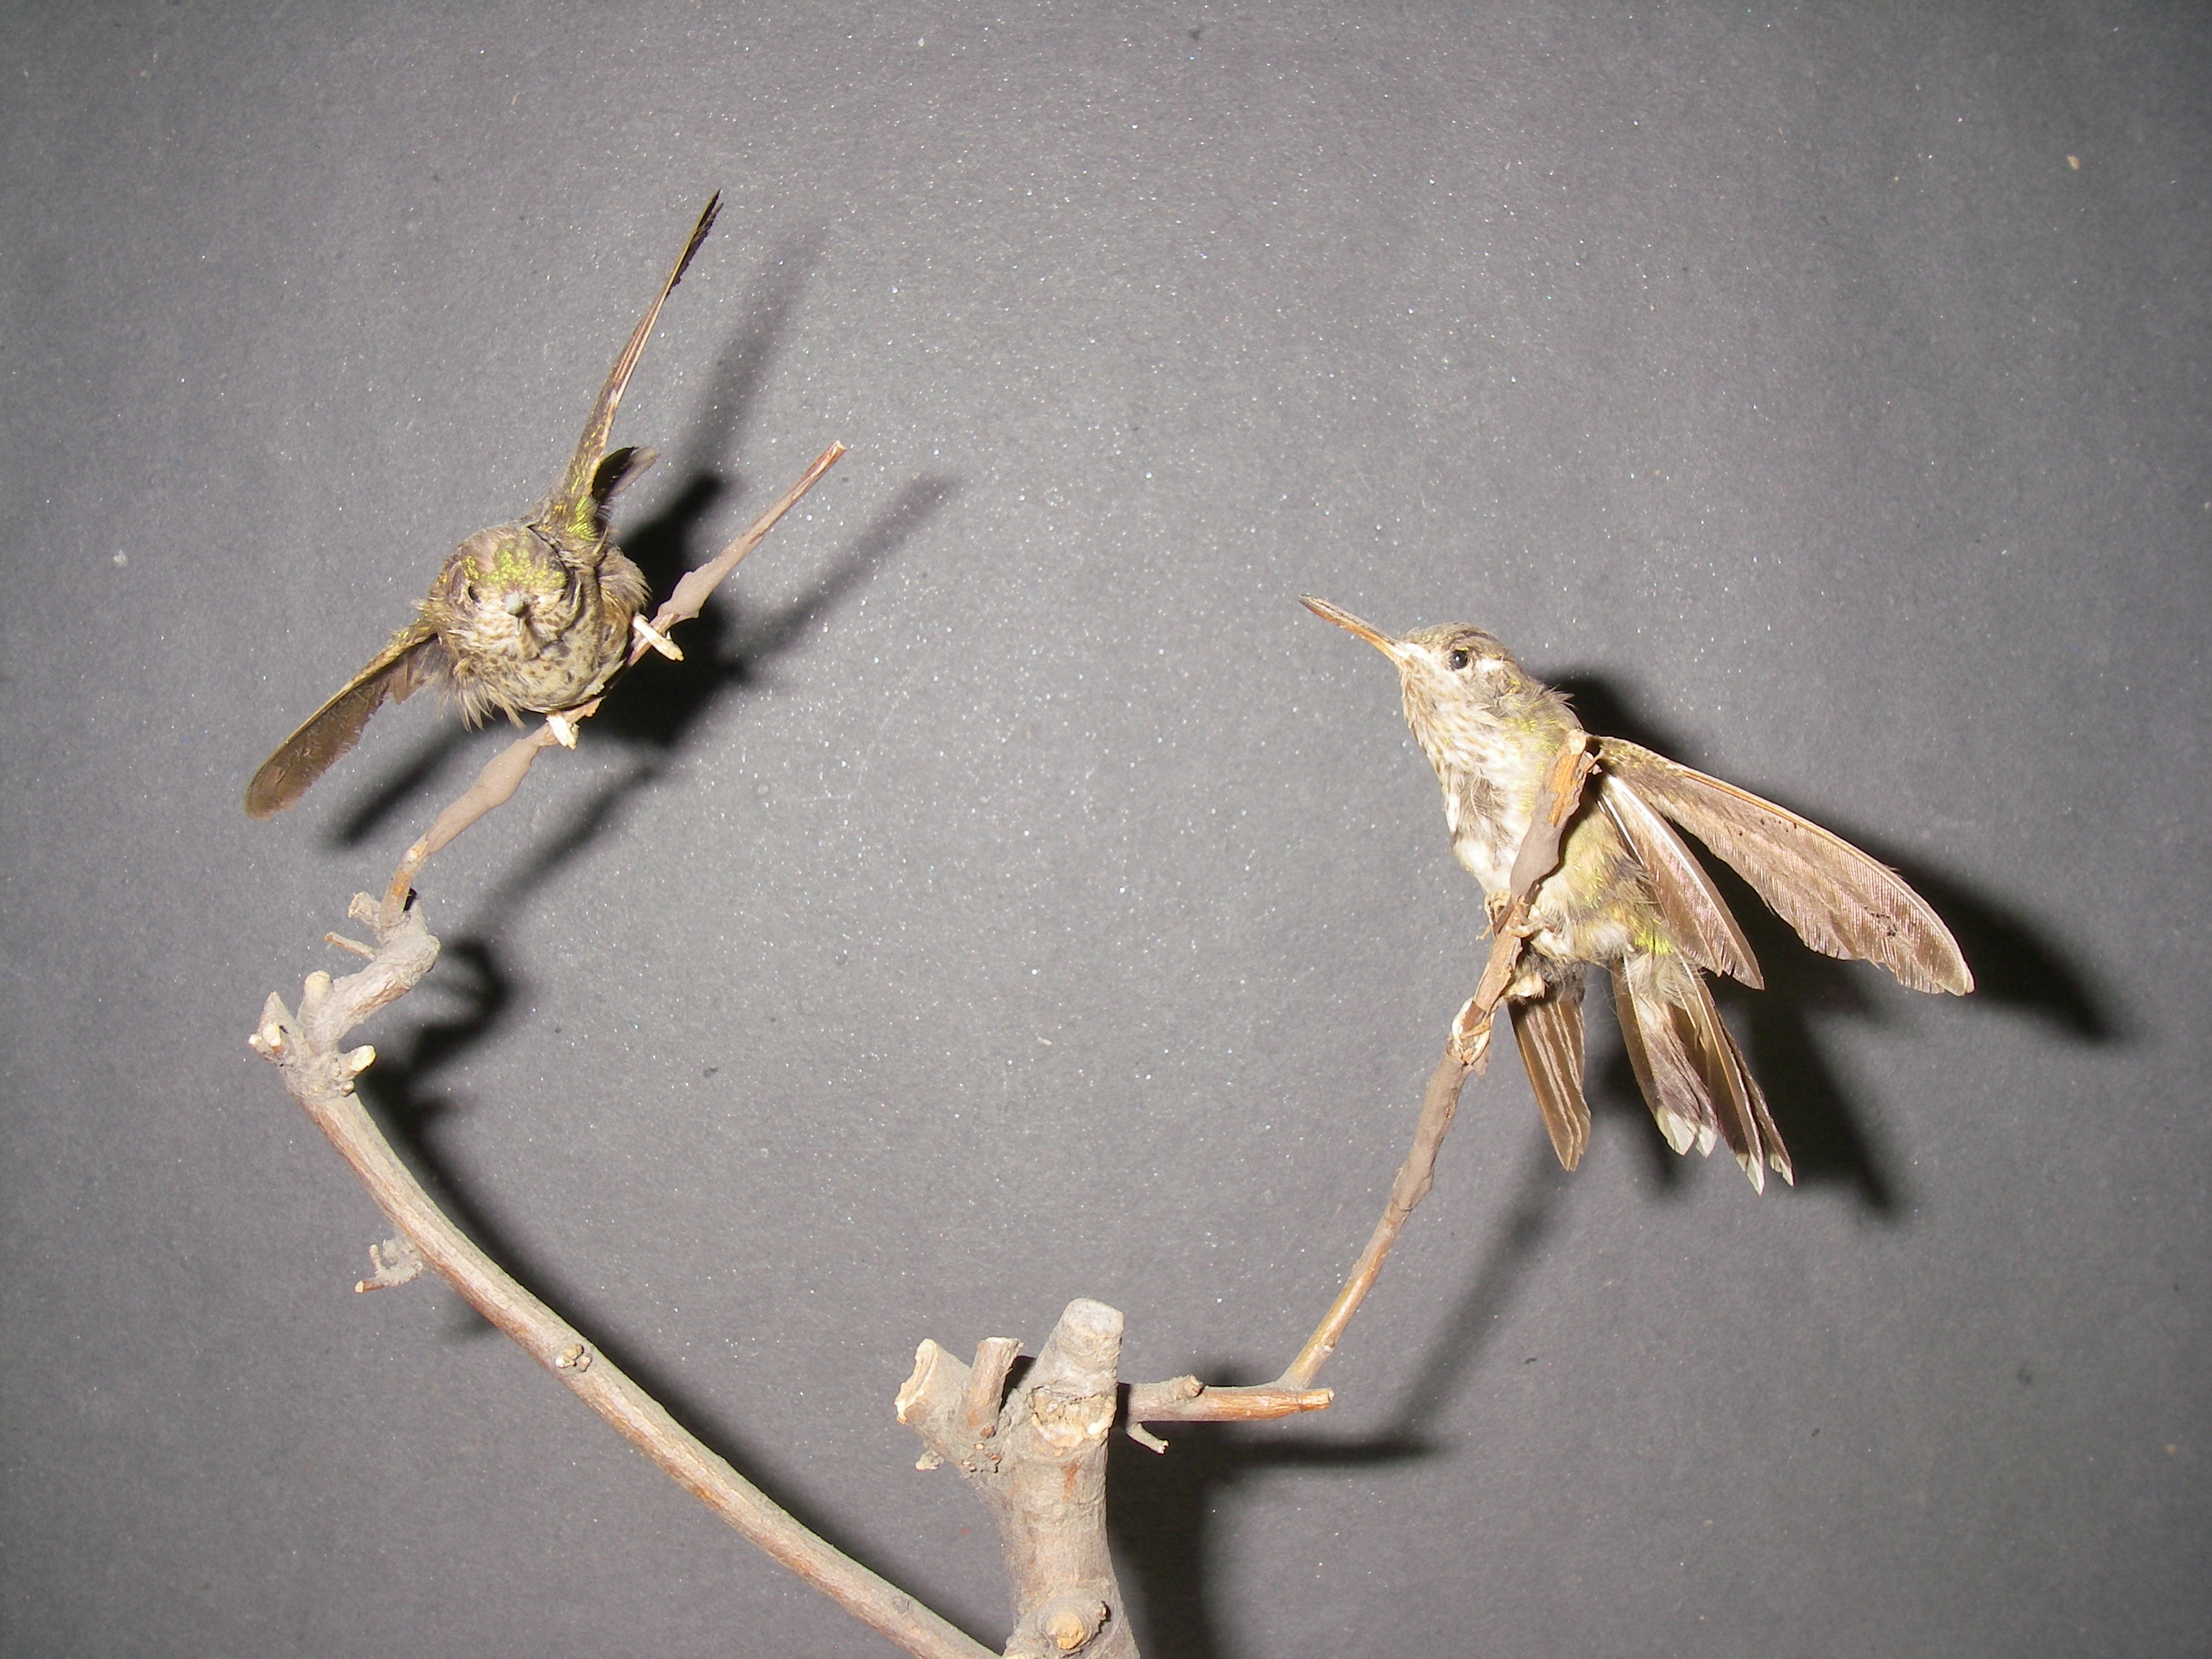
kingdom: Animalia
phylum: Chordata
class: Aves
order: Apodiformes
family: Trochilidae
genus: Urosticte
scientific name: Urosticte ruficrissa
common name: Rufous-vented whitetip
